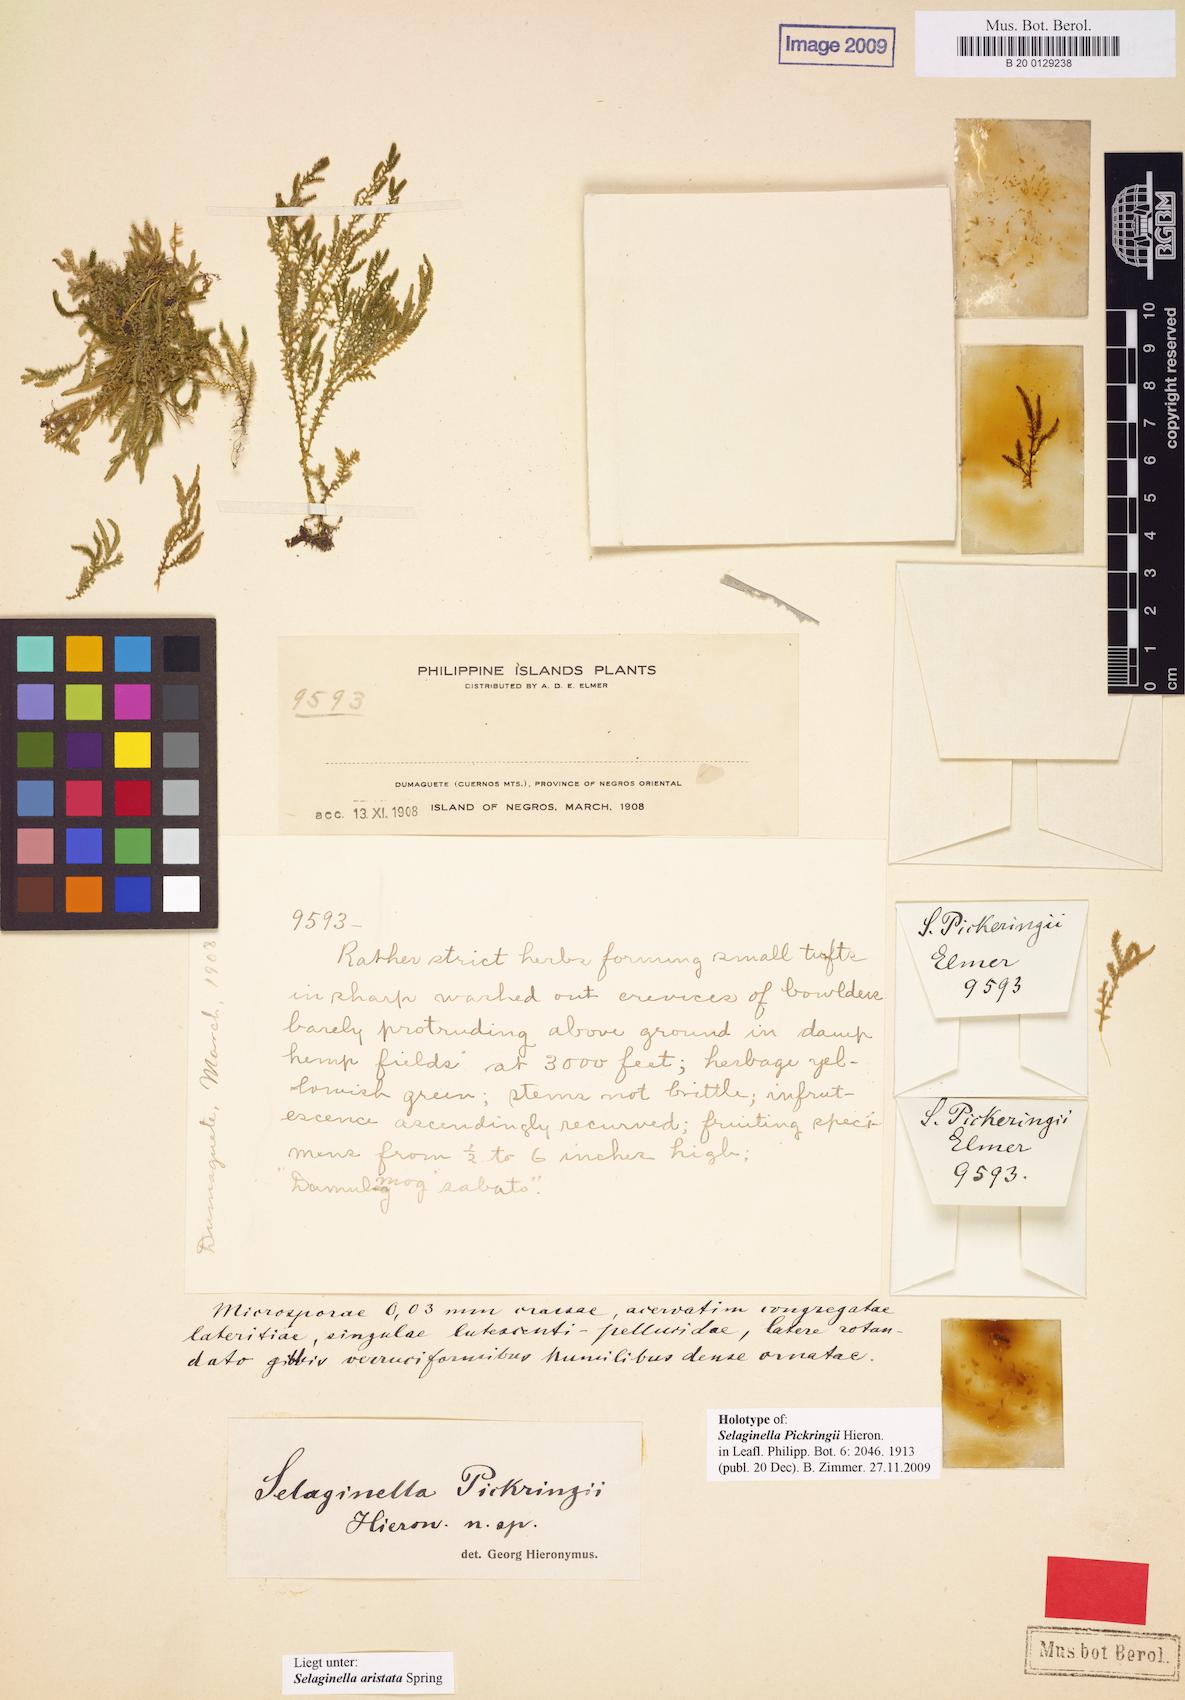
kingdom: Plantae
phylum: Tracheophyta
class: Lycopodiopsida
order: Selaginellales
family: Selaginellaceae
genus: Selaginella
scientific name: Selaginella aristata
